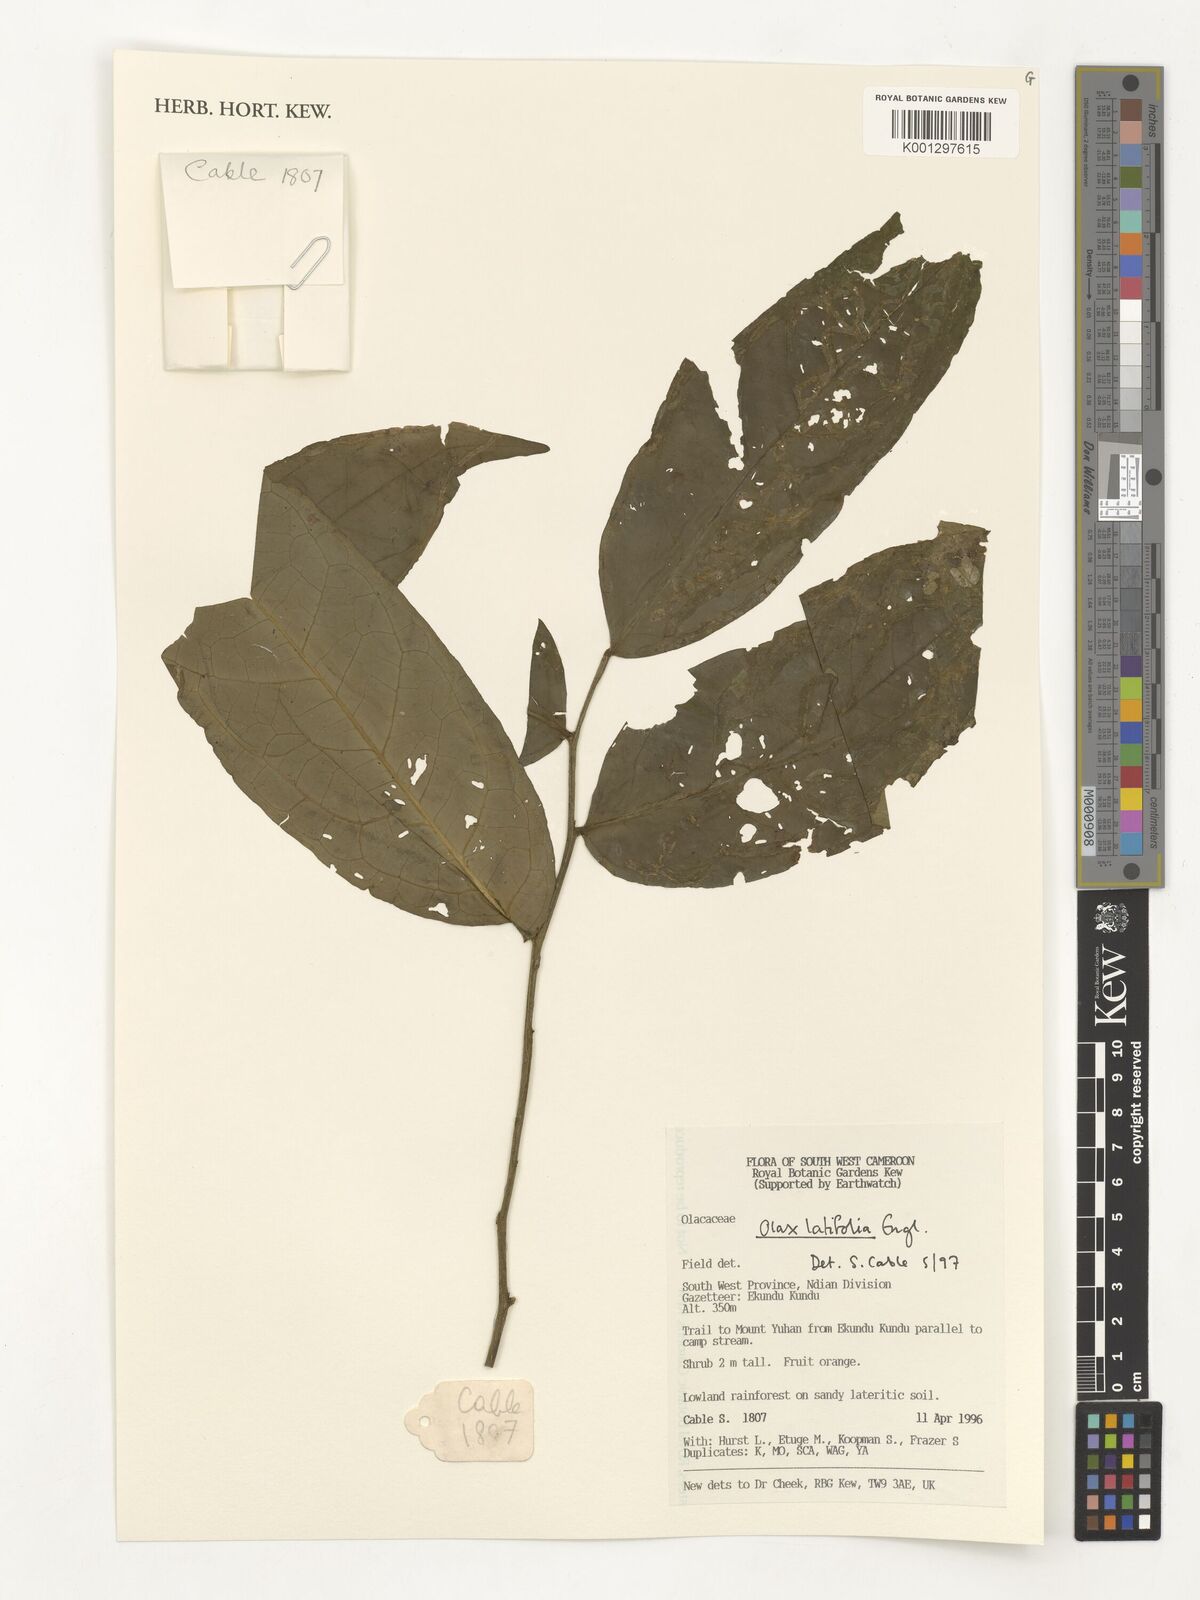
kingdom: Plantae
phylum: Tracheophyta
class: Magnoliopsida
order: Santalales
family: Olacaceae
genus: Olax
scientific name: Olax latifolia
